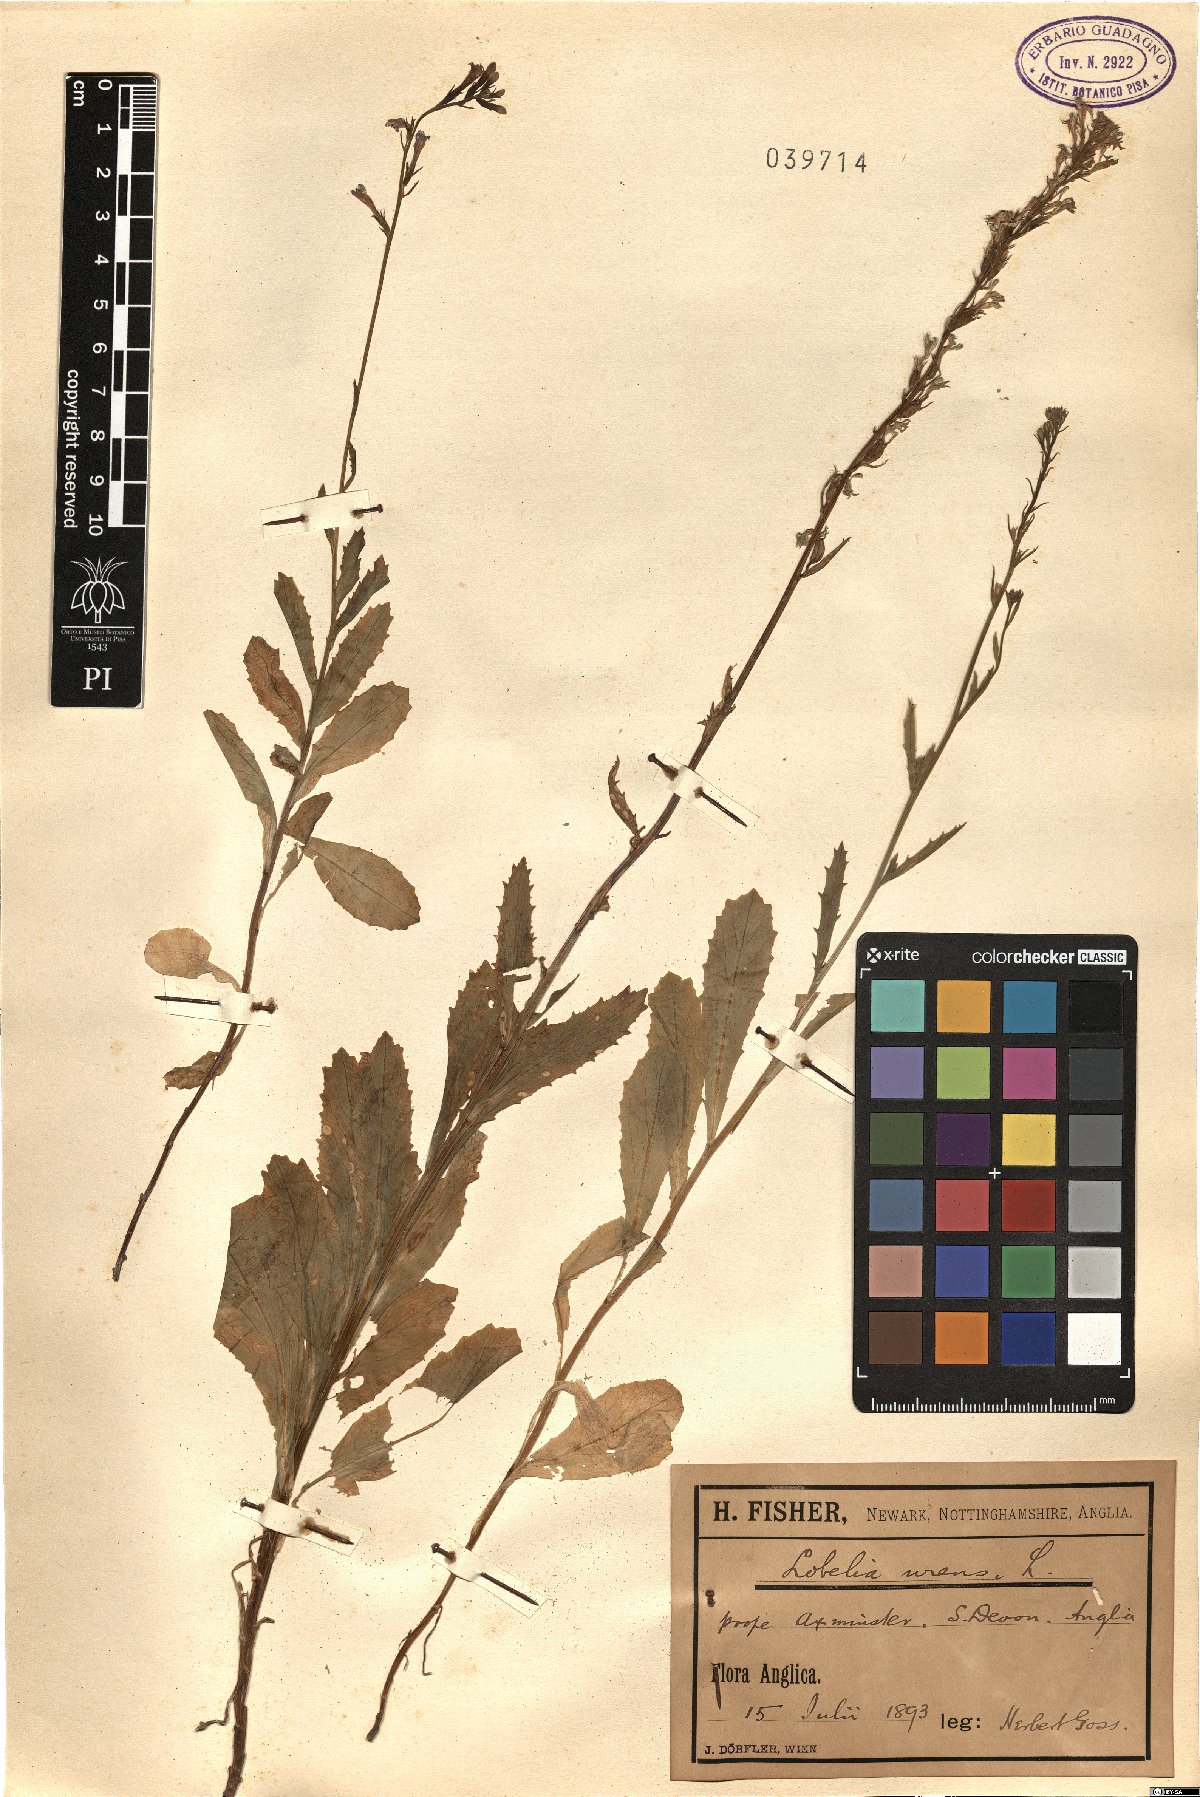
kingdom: Plantae
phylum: Tracheophyta
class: Magnoliopsida
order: Asterales
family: Campanulaceae
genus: Lobelia
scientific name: Lobelia urens
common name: Heath lobelia
